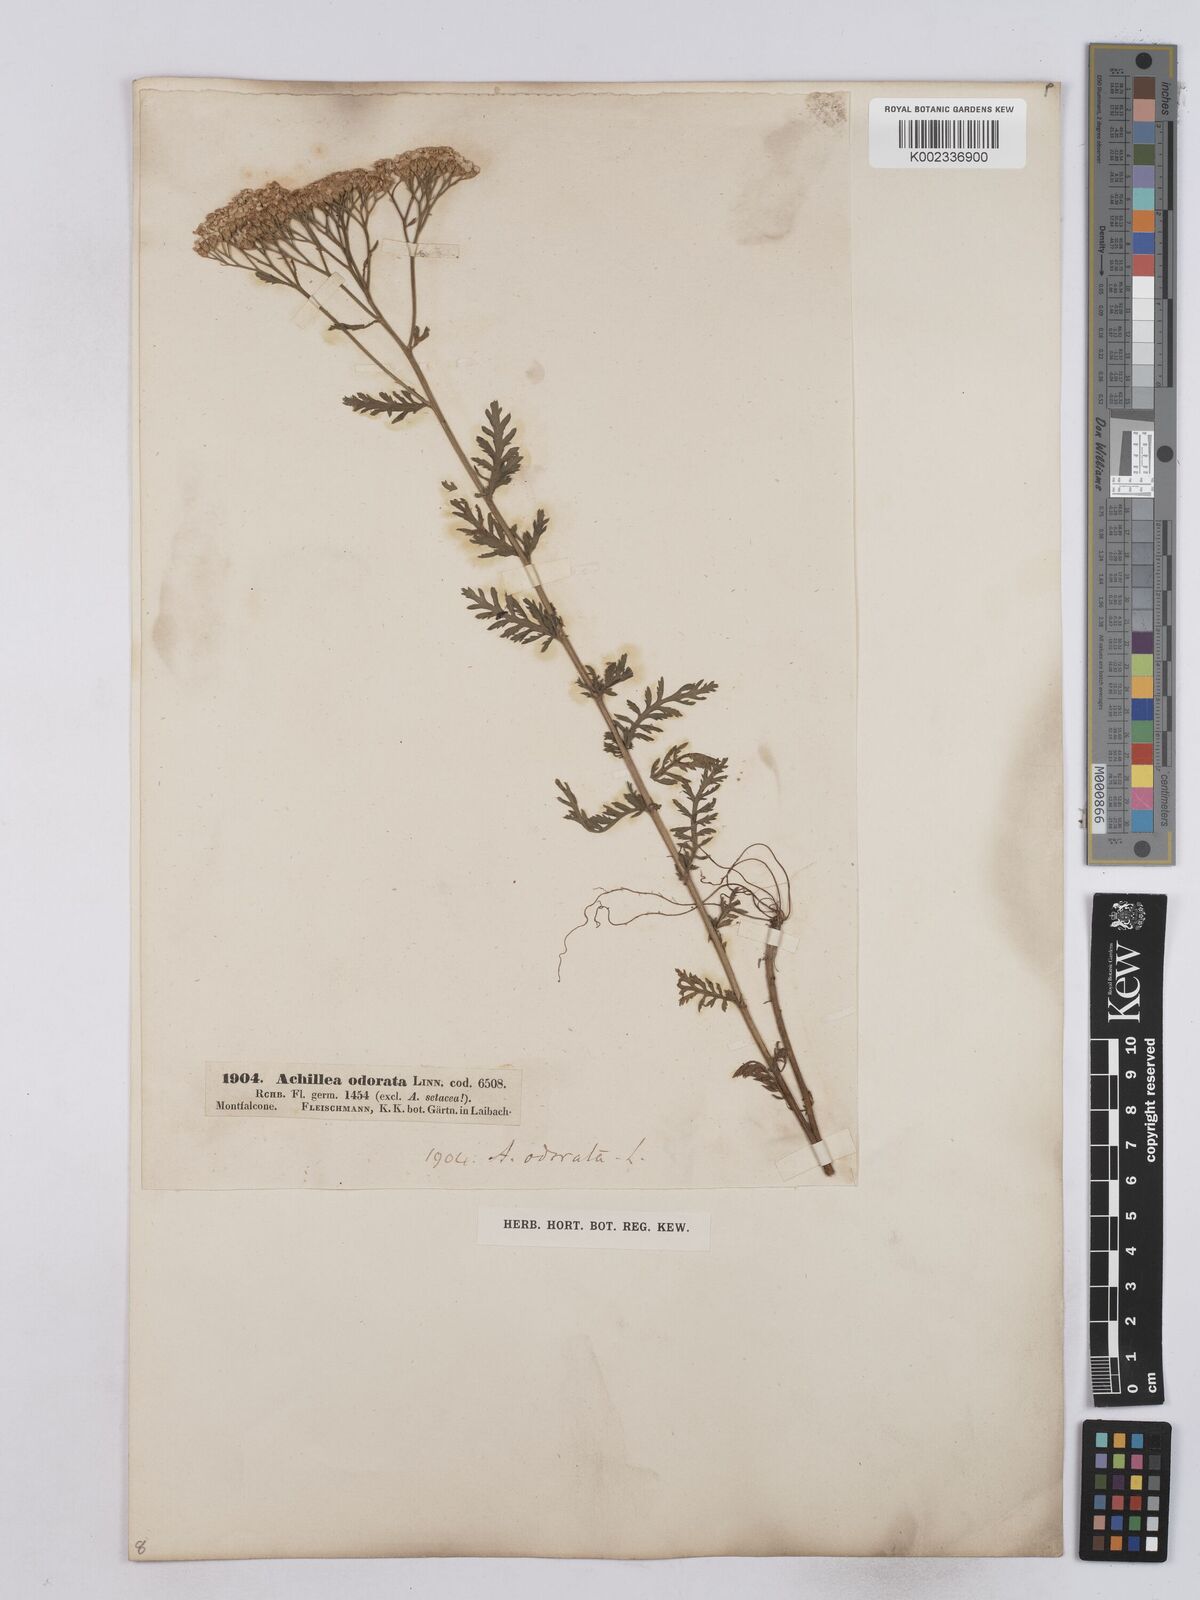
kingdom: Plantae
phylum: Tracheophyta
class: Magnoliopsida
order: Asterales
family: Asteraceae
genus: Achillea
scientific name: Achillea odorata
